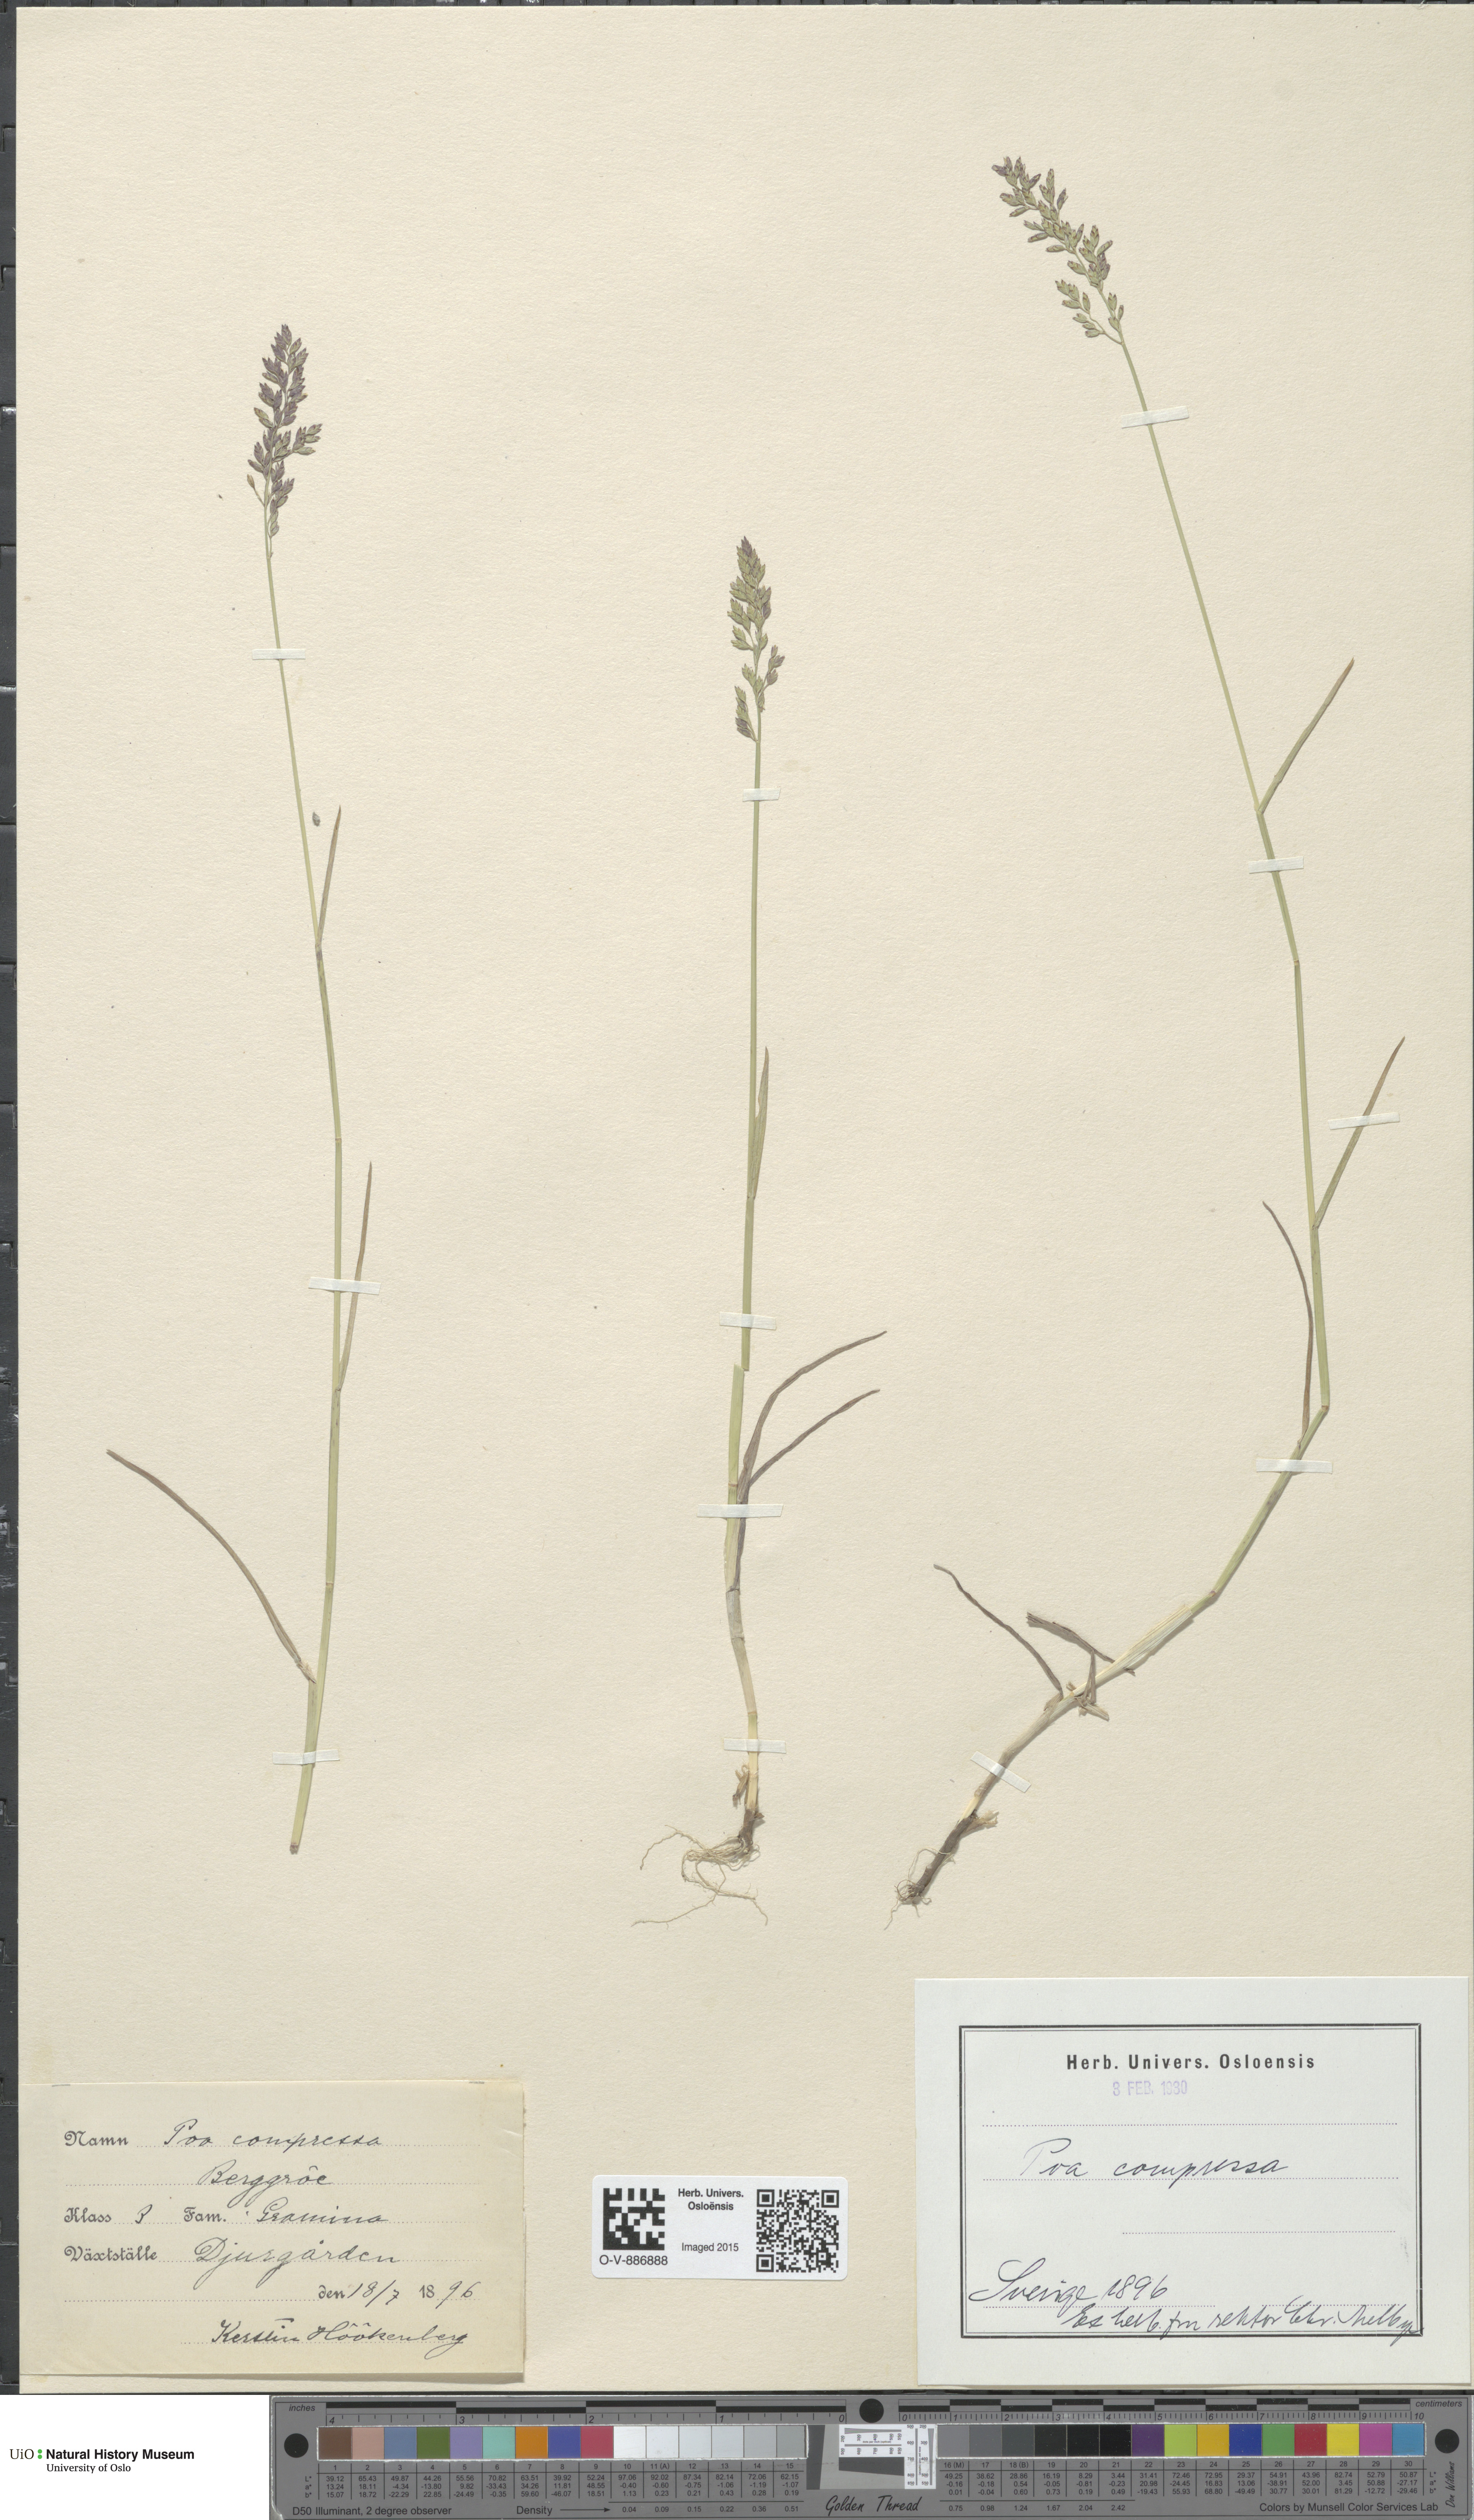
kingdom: Plantae
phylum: Tracheophyta
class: Liliopsida
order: Poales
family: Poaceae
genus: Poa
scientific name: Poa compressa
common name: Canada bluegrass
